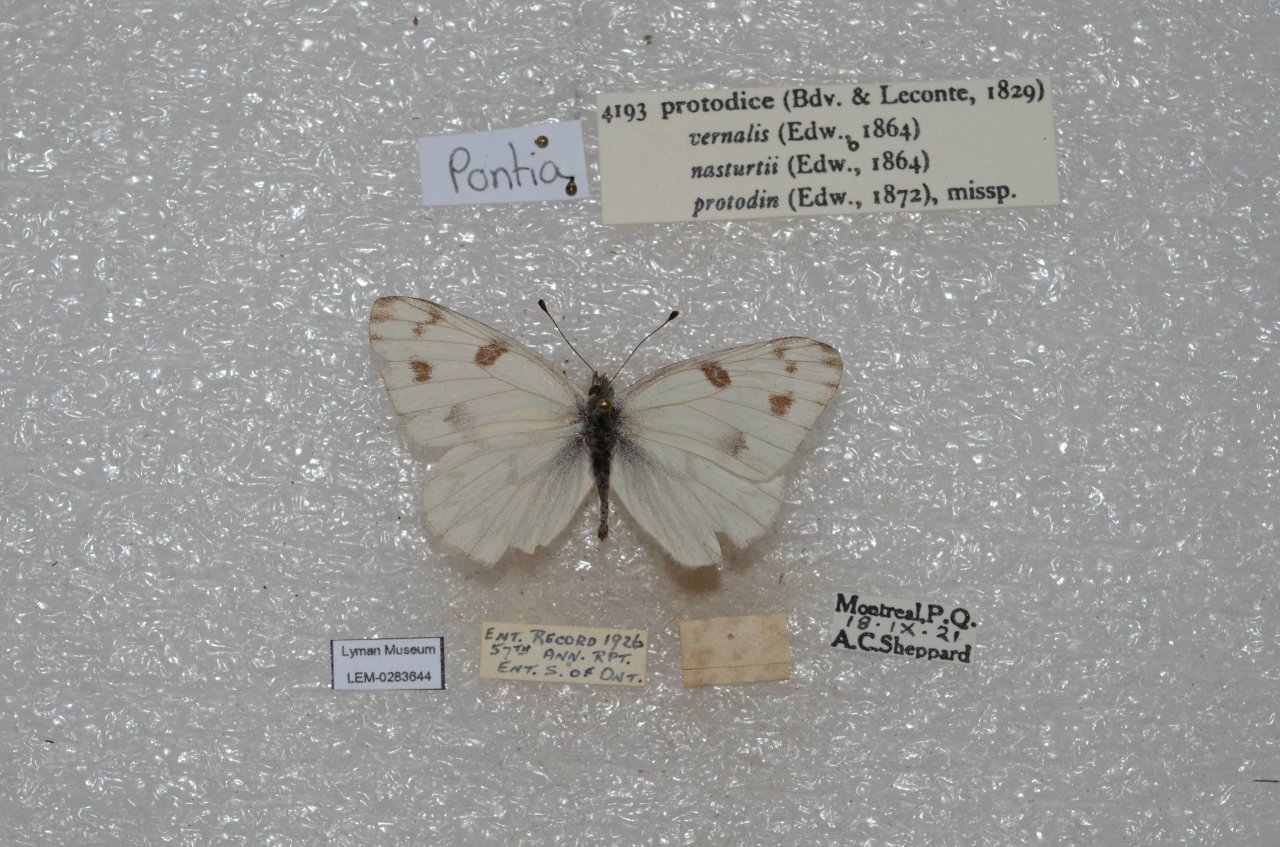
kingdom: Animalia
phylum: Arthropoda
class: Insecta
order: Lepidoptera
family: Pieridae
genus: Pontia
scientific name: Pontia protodice
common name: Checkered White
